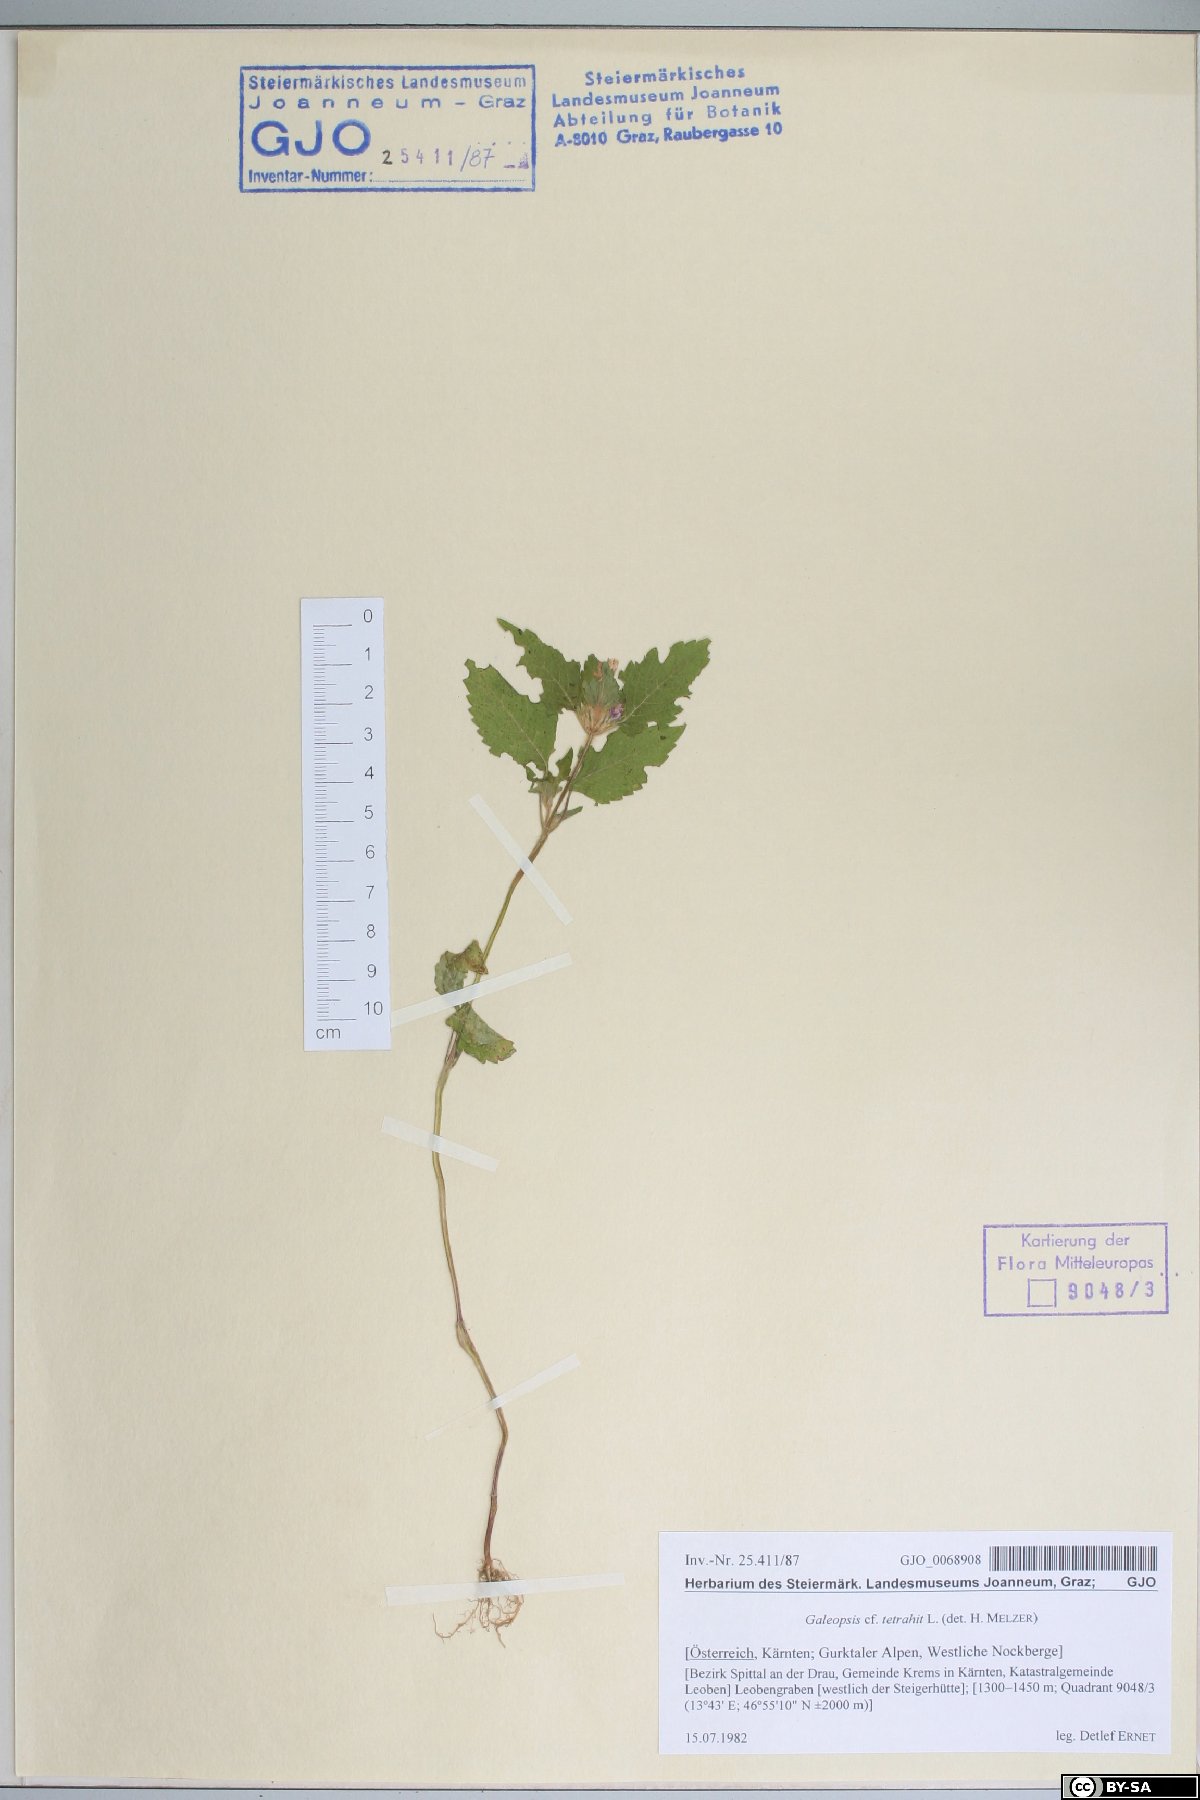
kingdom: Plantae
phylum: Tracheophyta
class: Magnoliopsida
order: Lamiales
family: Lamiaceae
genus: Galeopsis
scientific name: Galeopsis tetrahit
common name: Common hemp-nettle
